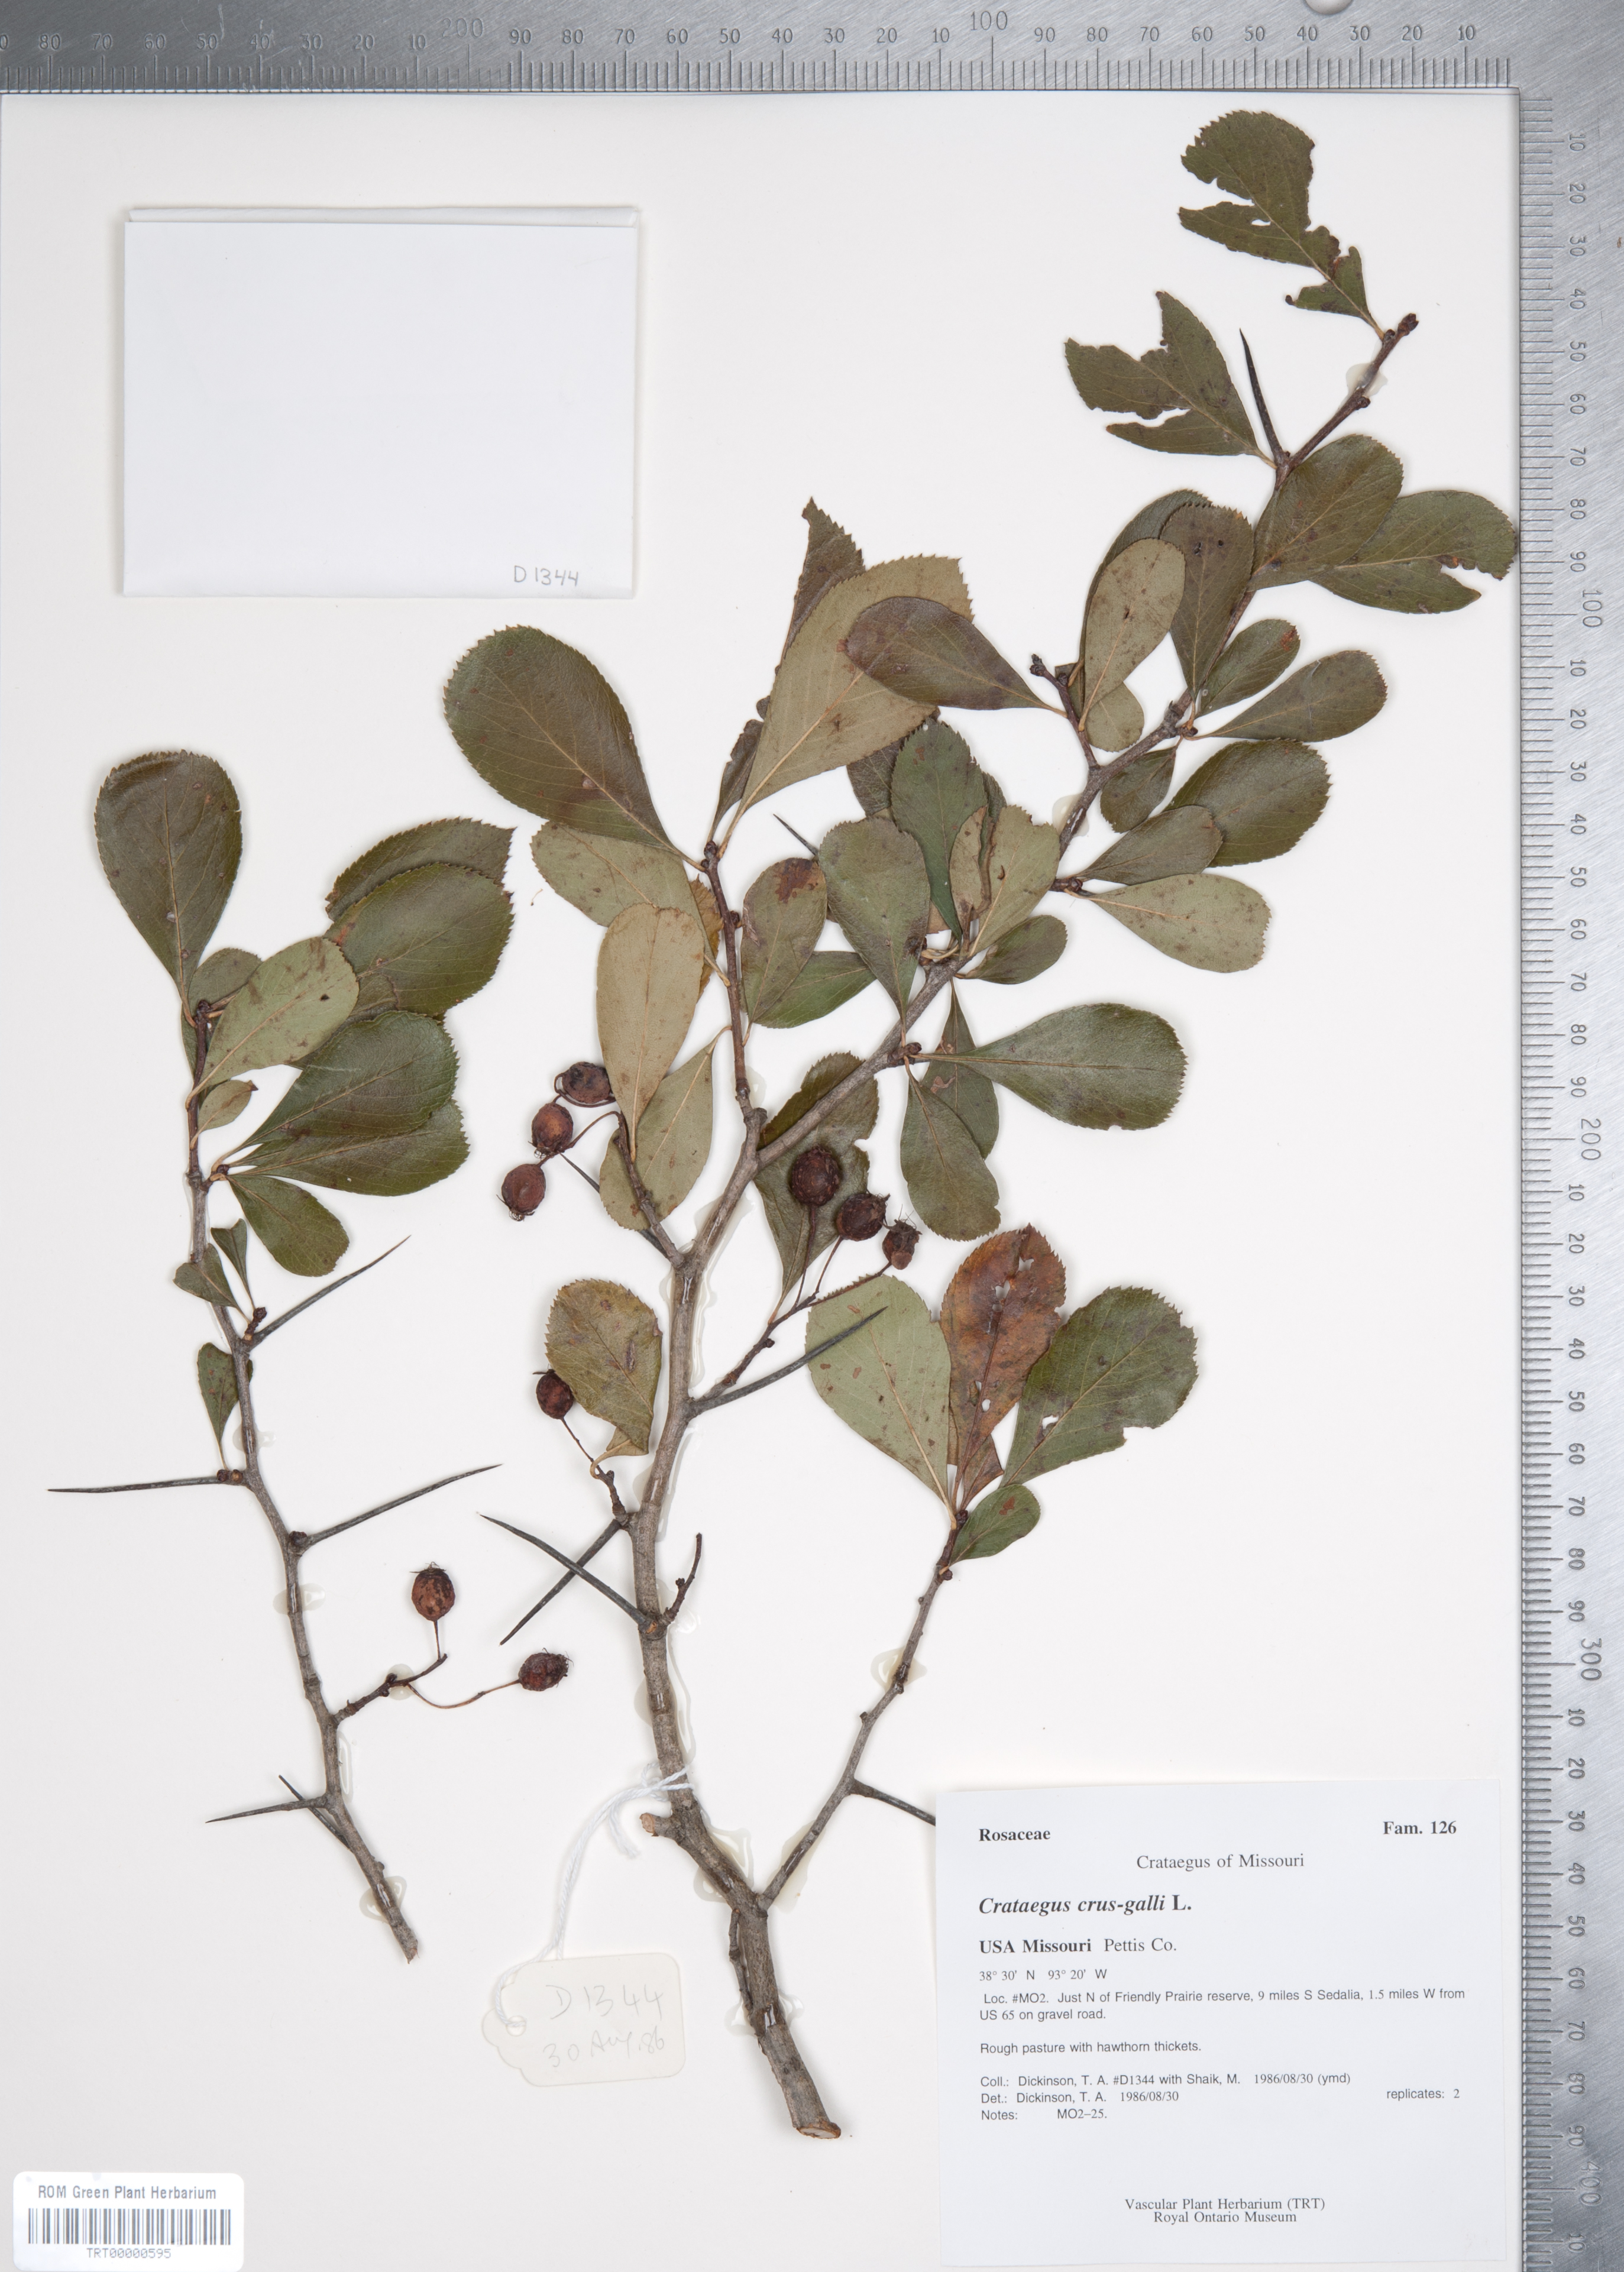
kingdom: Plantae
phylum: Tracheophyta
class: Magnoliopsida
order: Rosales
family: Rosaceae
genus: Crataegus
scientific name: Crataegus crus-galli
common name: Cockspurthorn
